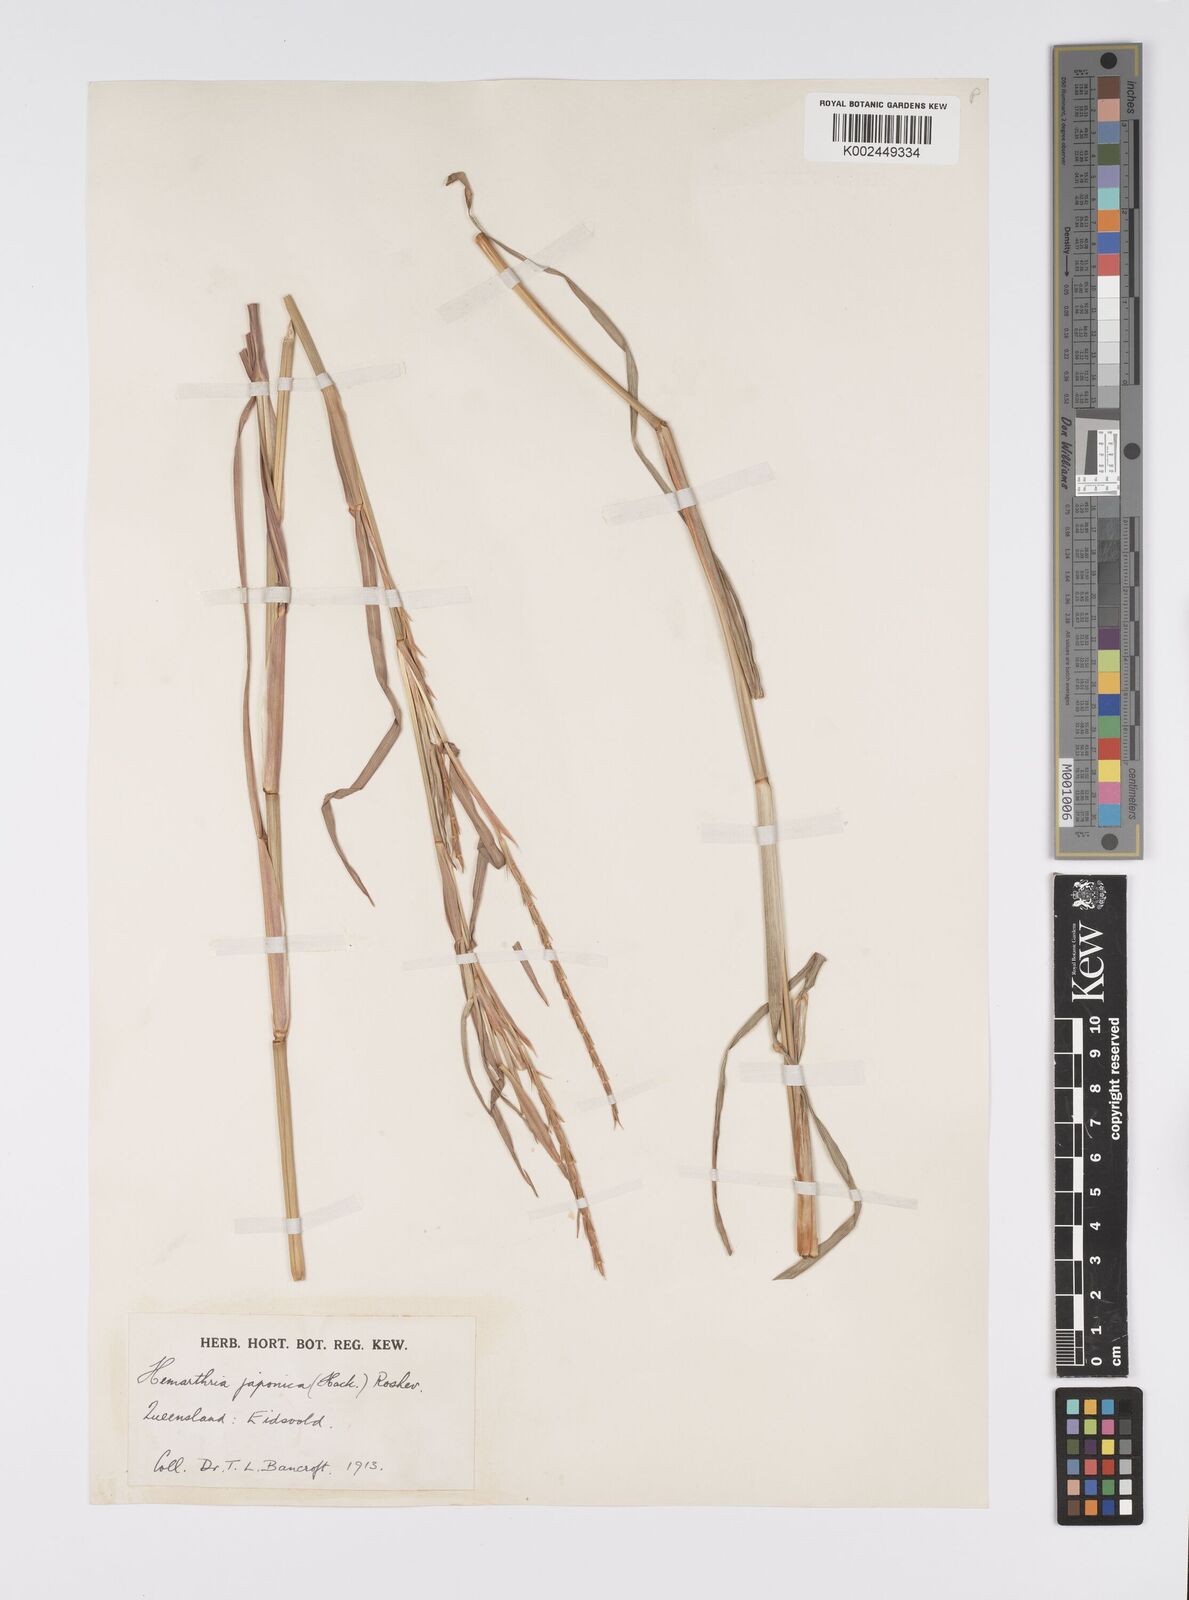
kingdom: Plantae
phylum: Tracheophyta
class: Liliopsida
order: Poales
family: Poaceae
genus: Hemarthria
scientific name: Hemarthria altissima
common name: African jointgrass
